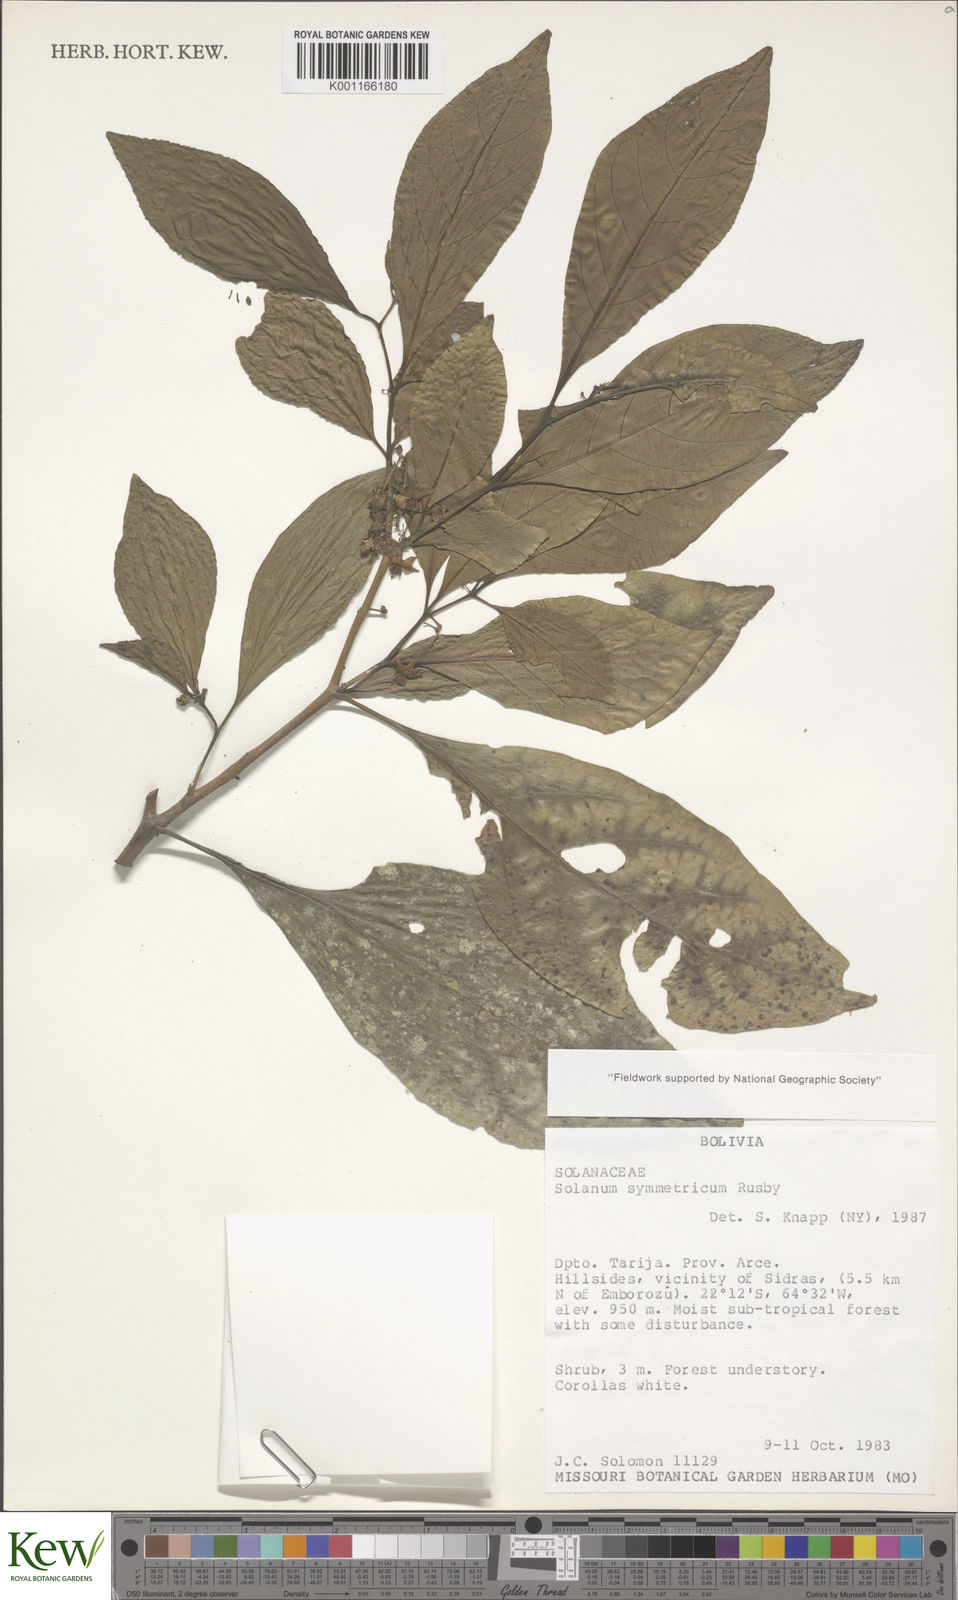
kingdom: Plantae
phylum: Tracheophyta
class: Magnoliopsida
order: Solanales
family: Solanaceae
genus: Solanum
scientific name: Solanum symmetricum
